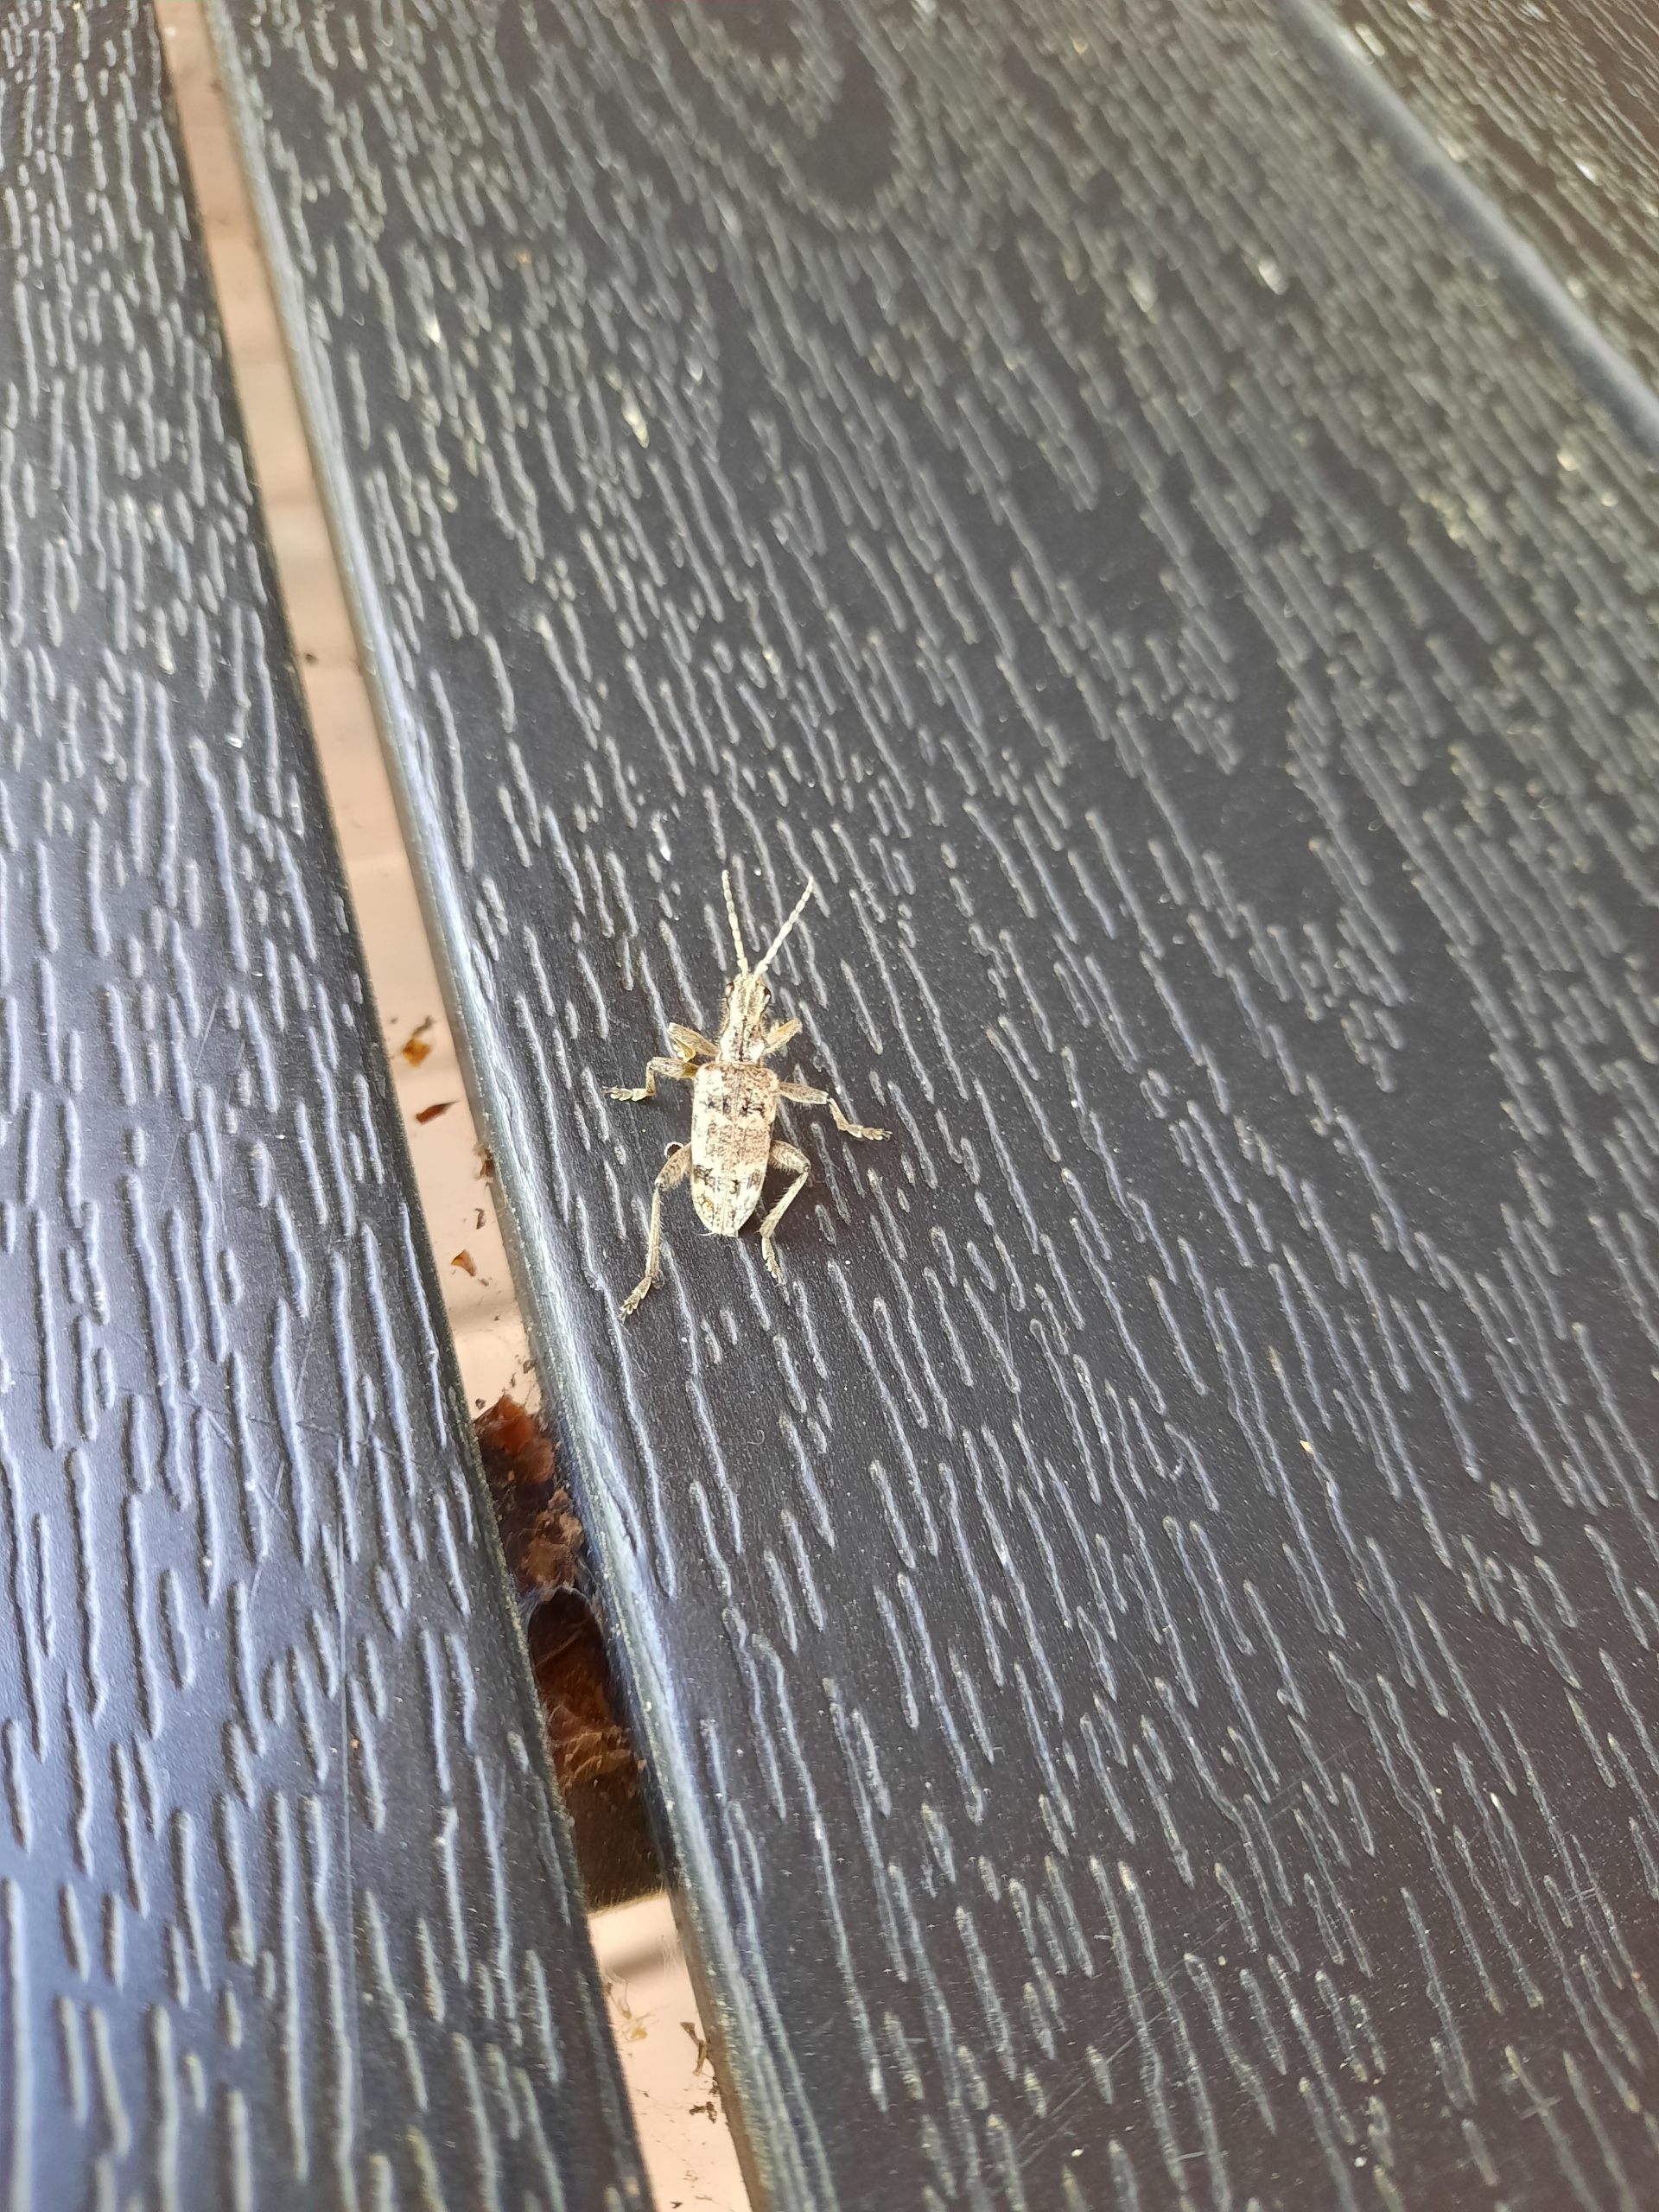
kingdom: Animalia
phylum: Arthropoda
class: Insecta
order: Coleoptera
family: Cerambycidae
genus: Rhagium
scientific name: Rhagium inquisitor
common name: Fyrretandbuk
